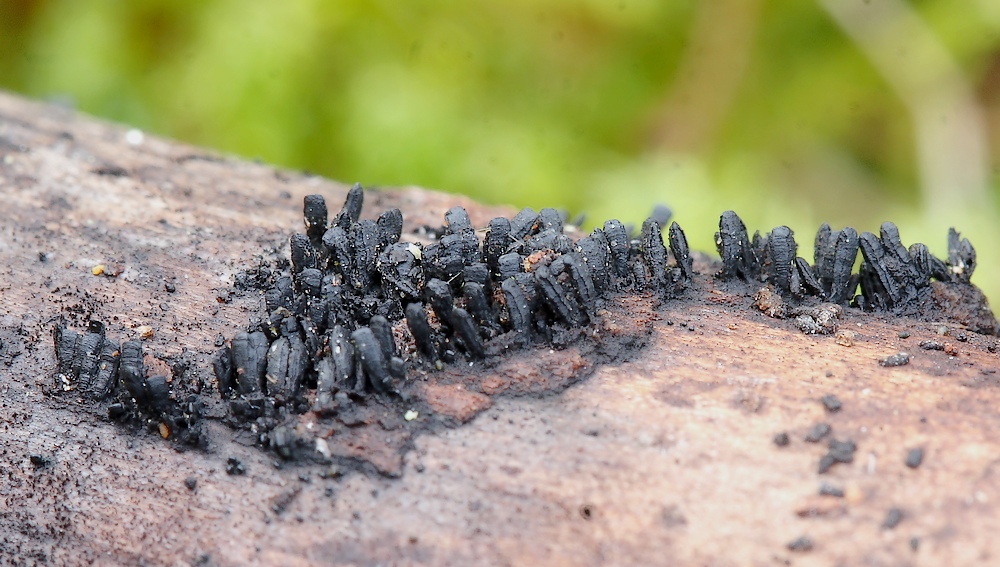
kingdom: Fungi
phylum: Ascomycota
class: Eurotiomycetes
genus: Glyphium
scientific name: Glyphium elatum
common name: kuløkse
